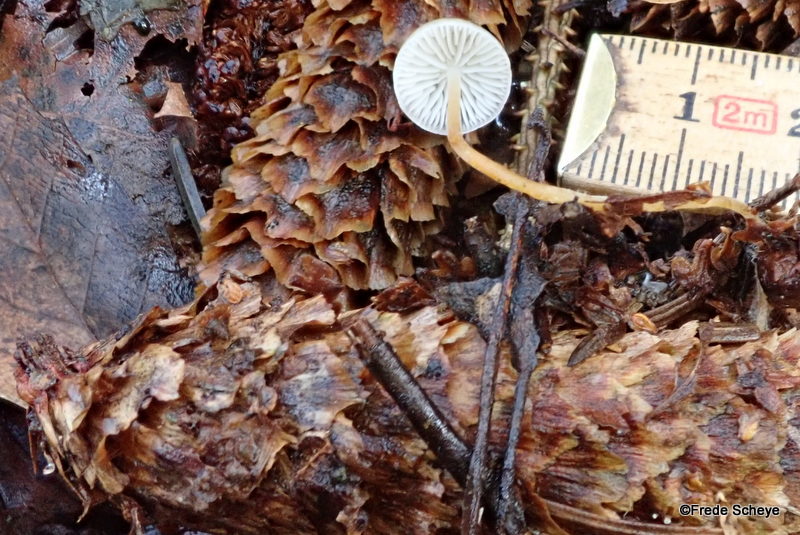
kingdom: Fungi
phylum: Basidiomycota
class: Agaricomycetes
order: Agaricales
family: Physalacriaceae
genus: Strobilurus
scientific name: Strobilurus esculentus
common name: gran-koglehat
